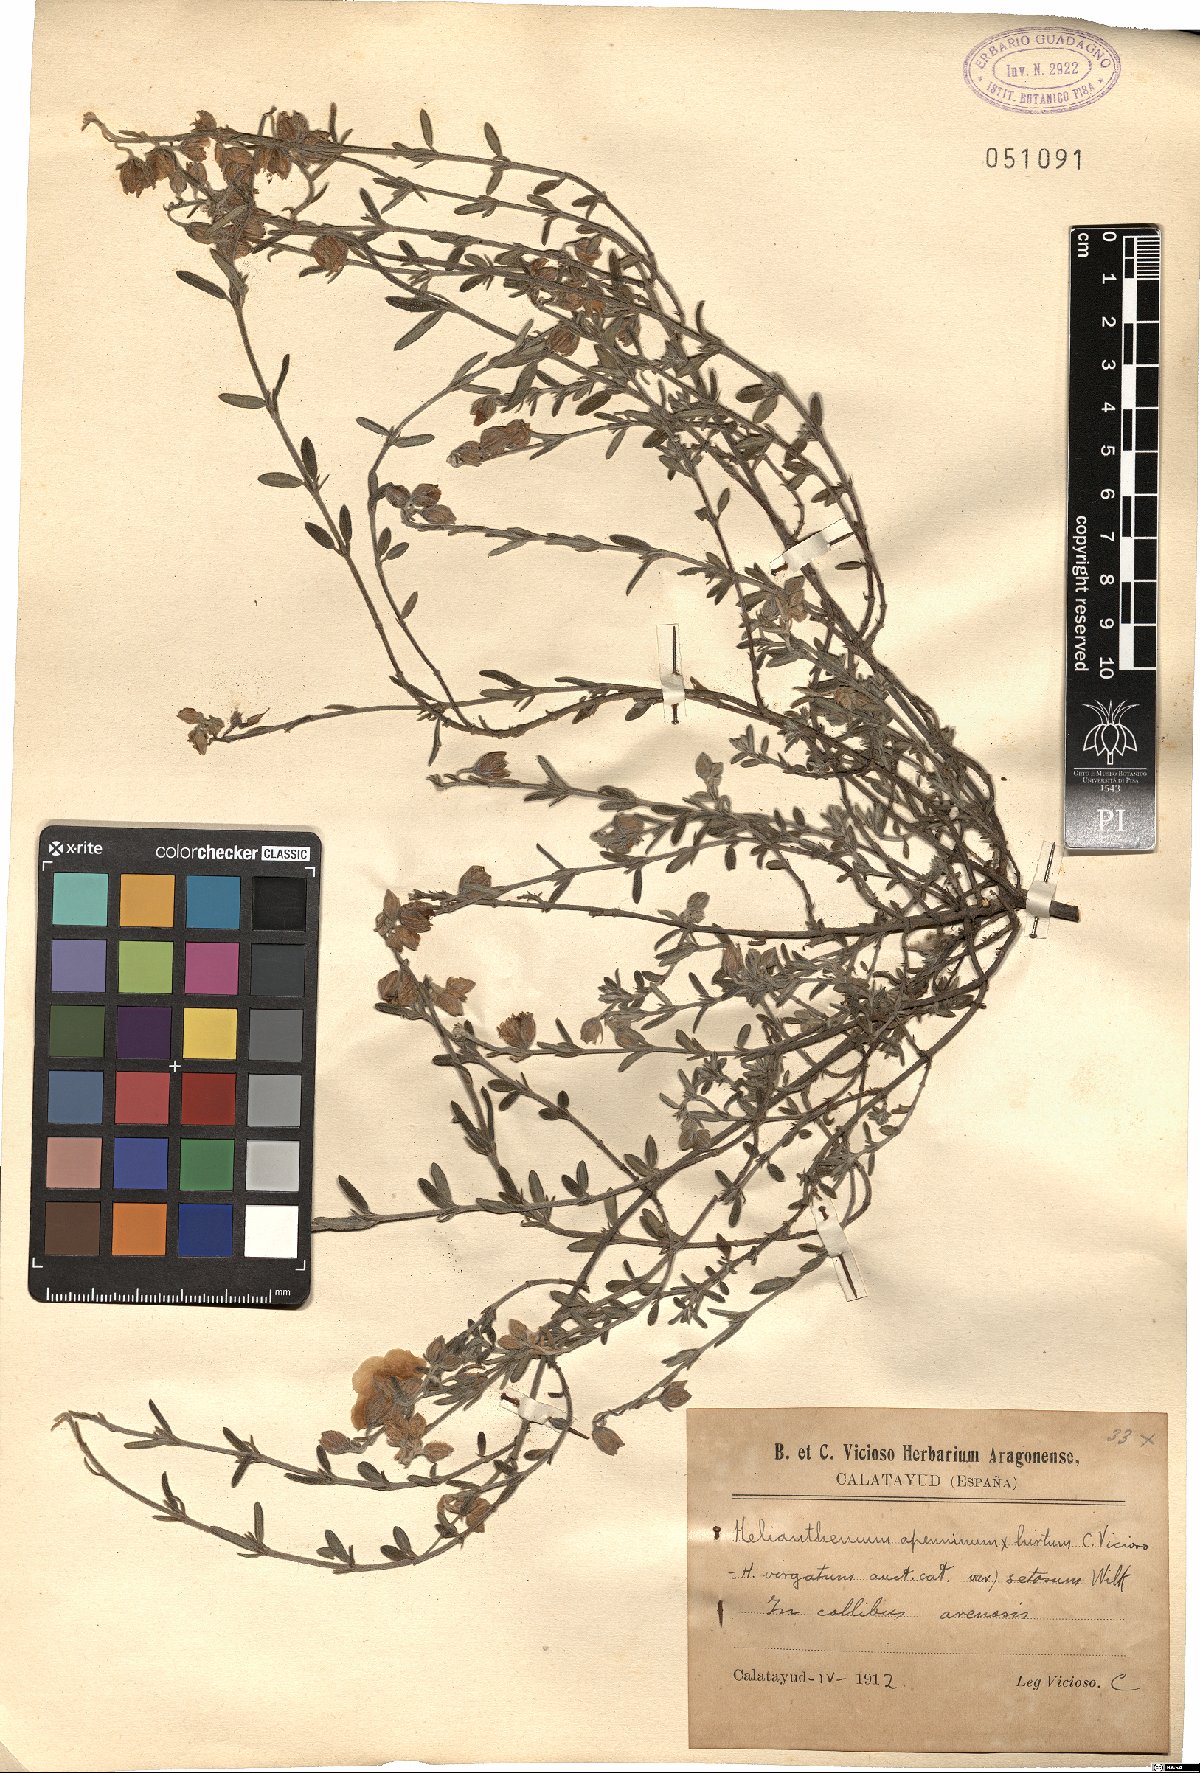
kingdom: Plantae
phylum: Tracheophyta
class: Magnoliopsida
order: Malvales
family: Cistaceae
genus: Helianthemum
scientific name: Helianthemum virgatum
